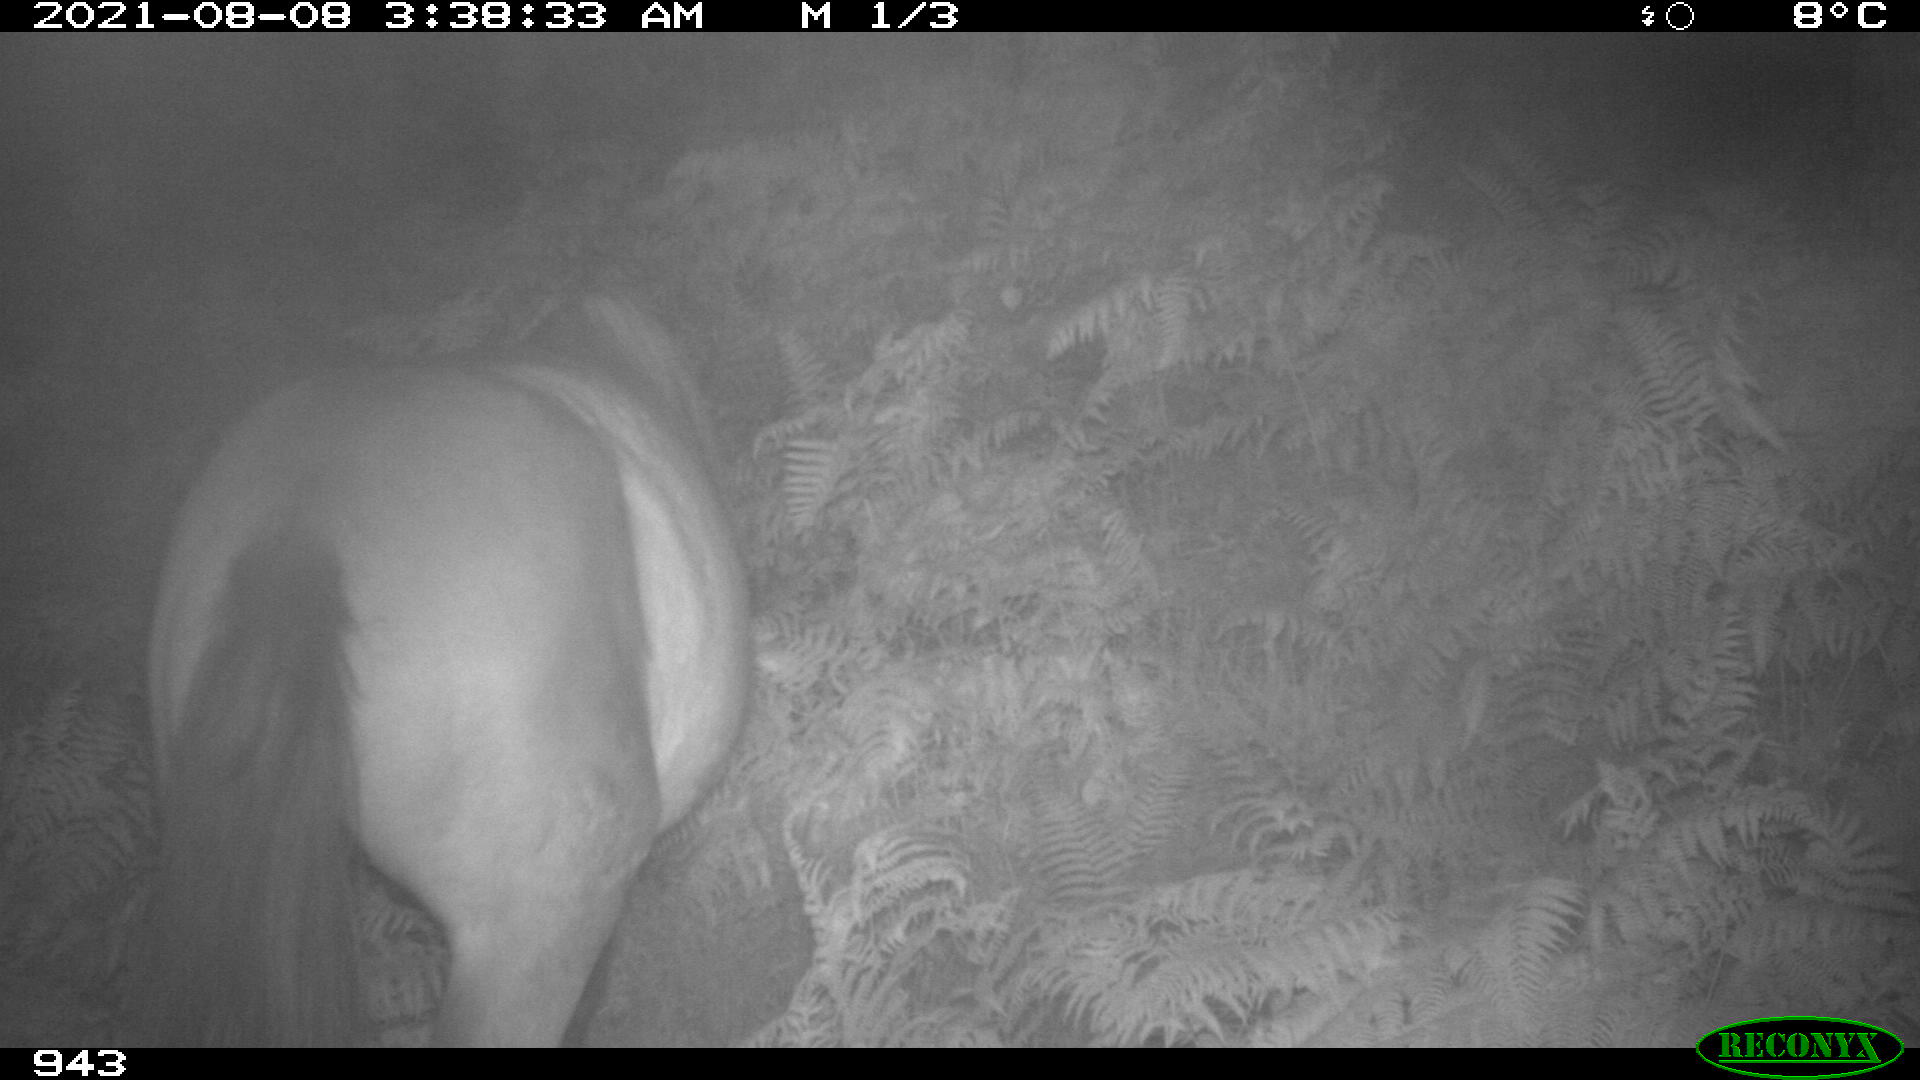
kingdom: Animalia
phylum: Chordata
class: Mammalia
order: Perissodactyla
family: Equidae
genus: Equus
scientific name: Equus caballus
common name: Horse
